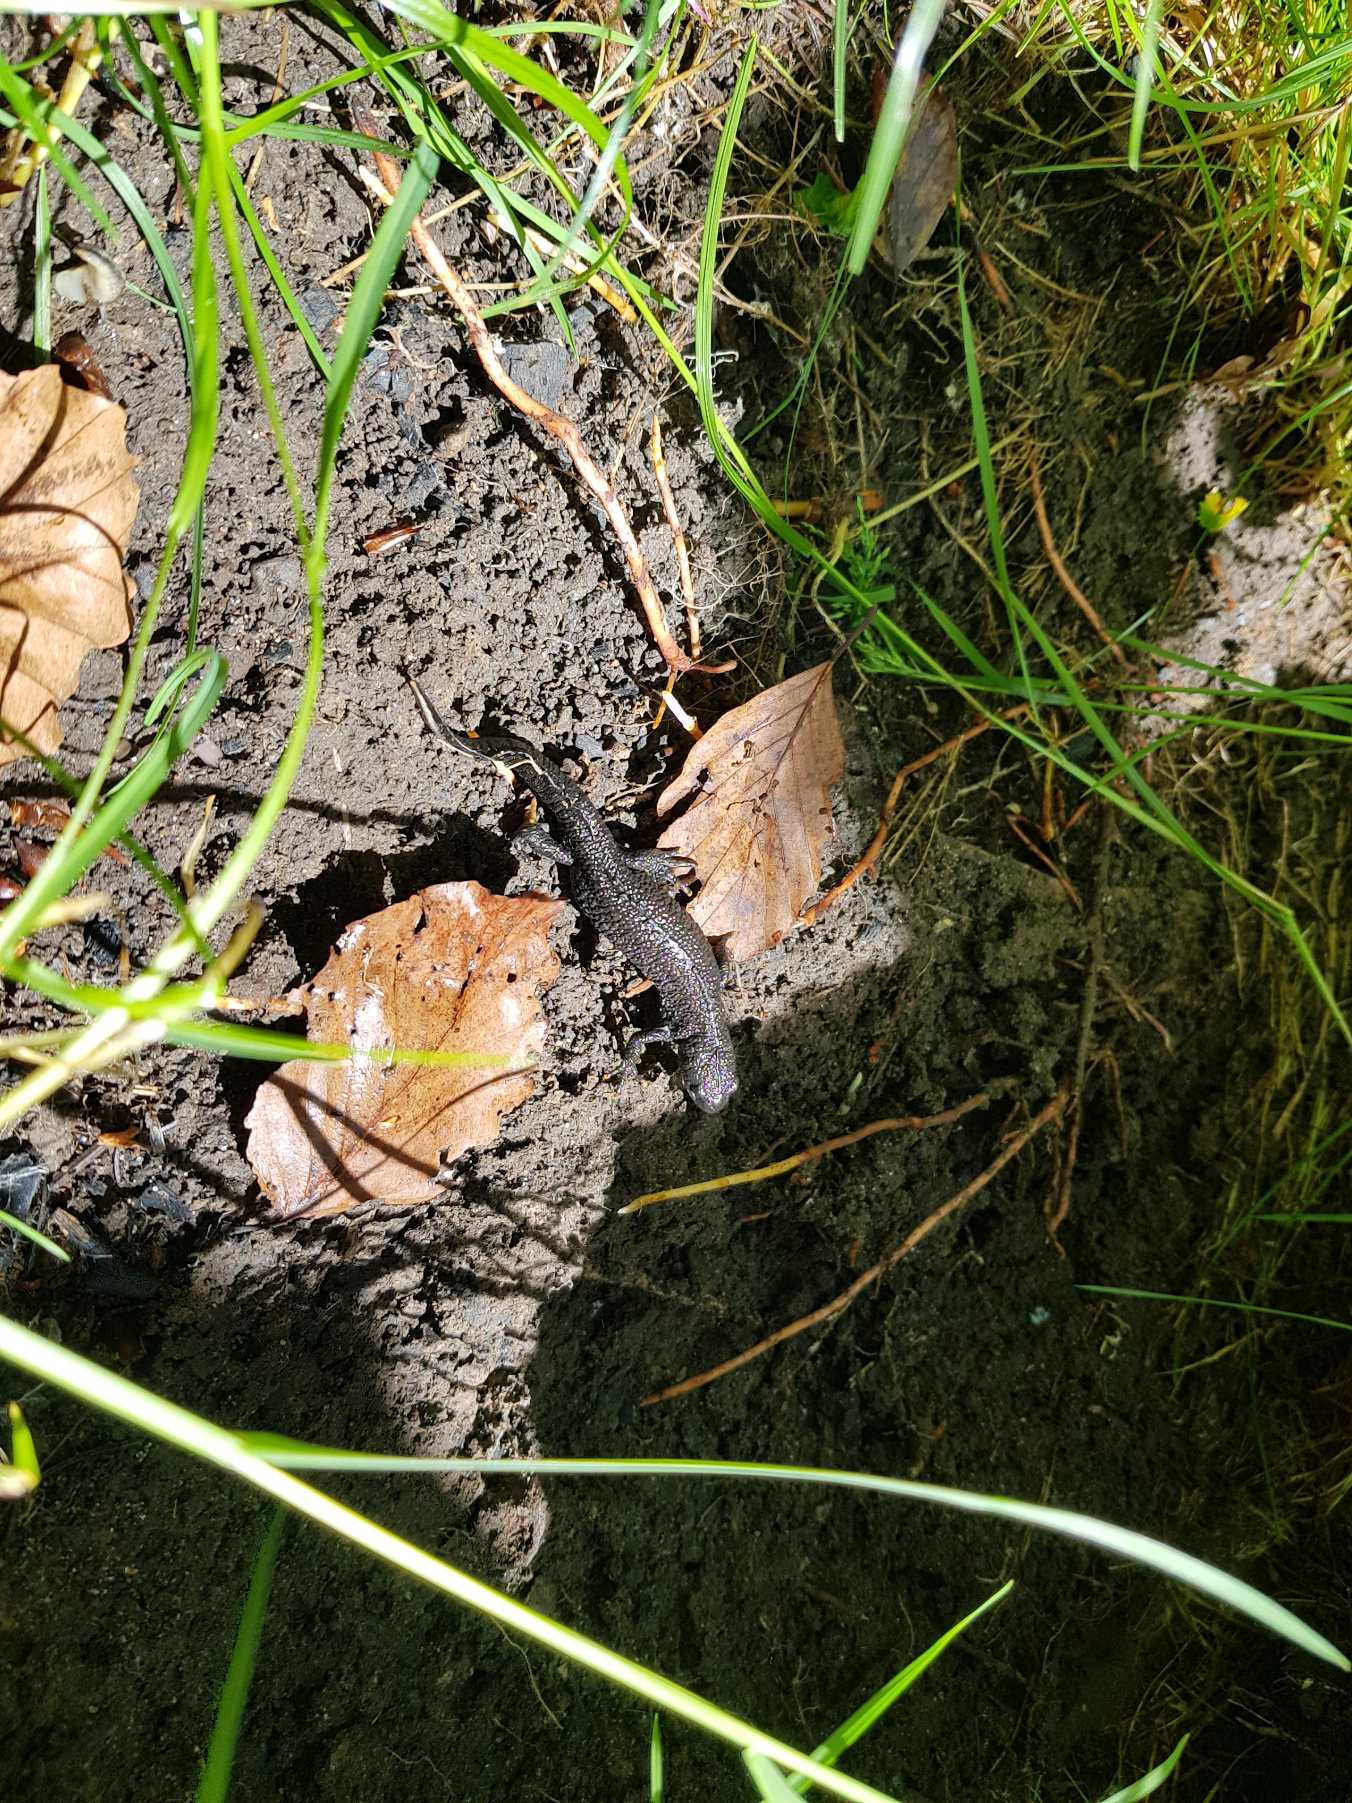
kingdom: Animalia
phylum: Chordata
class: Amphibia
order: Caudata
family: Salamandridae
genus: Triturus
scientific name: Triturus cristatus
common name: Stor vandsalamander
